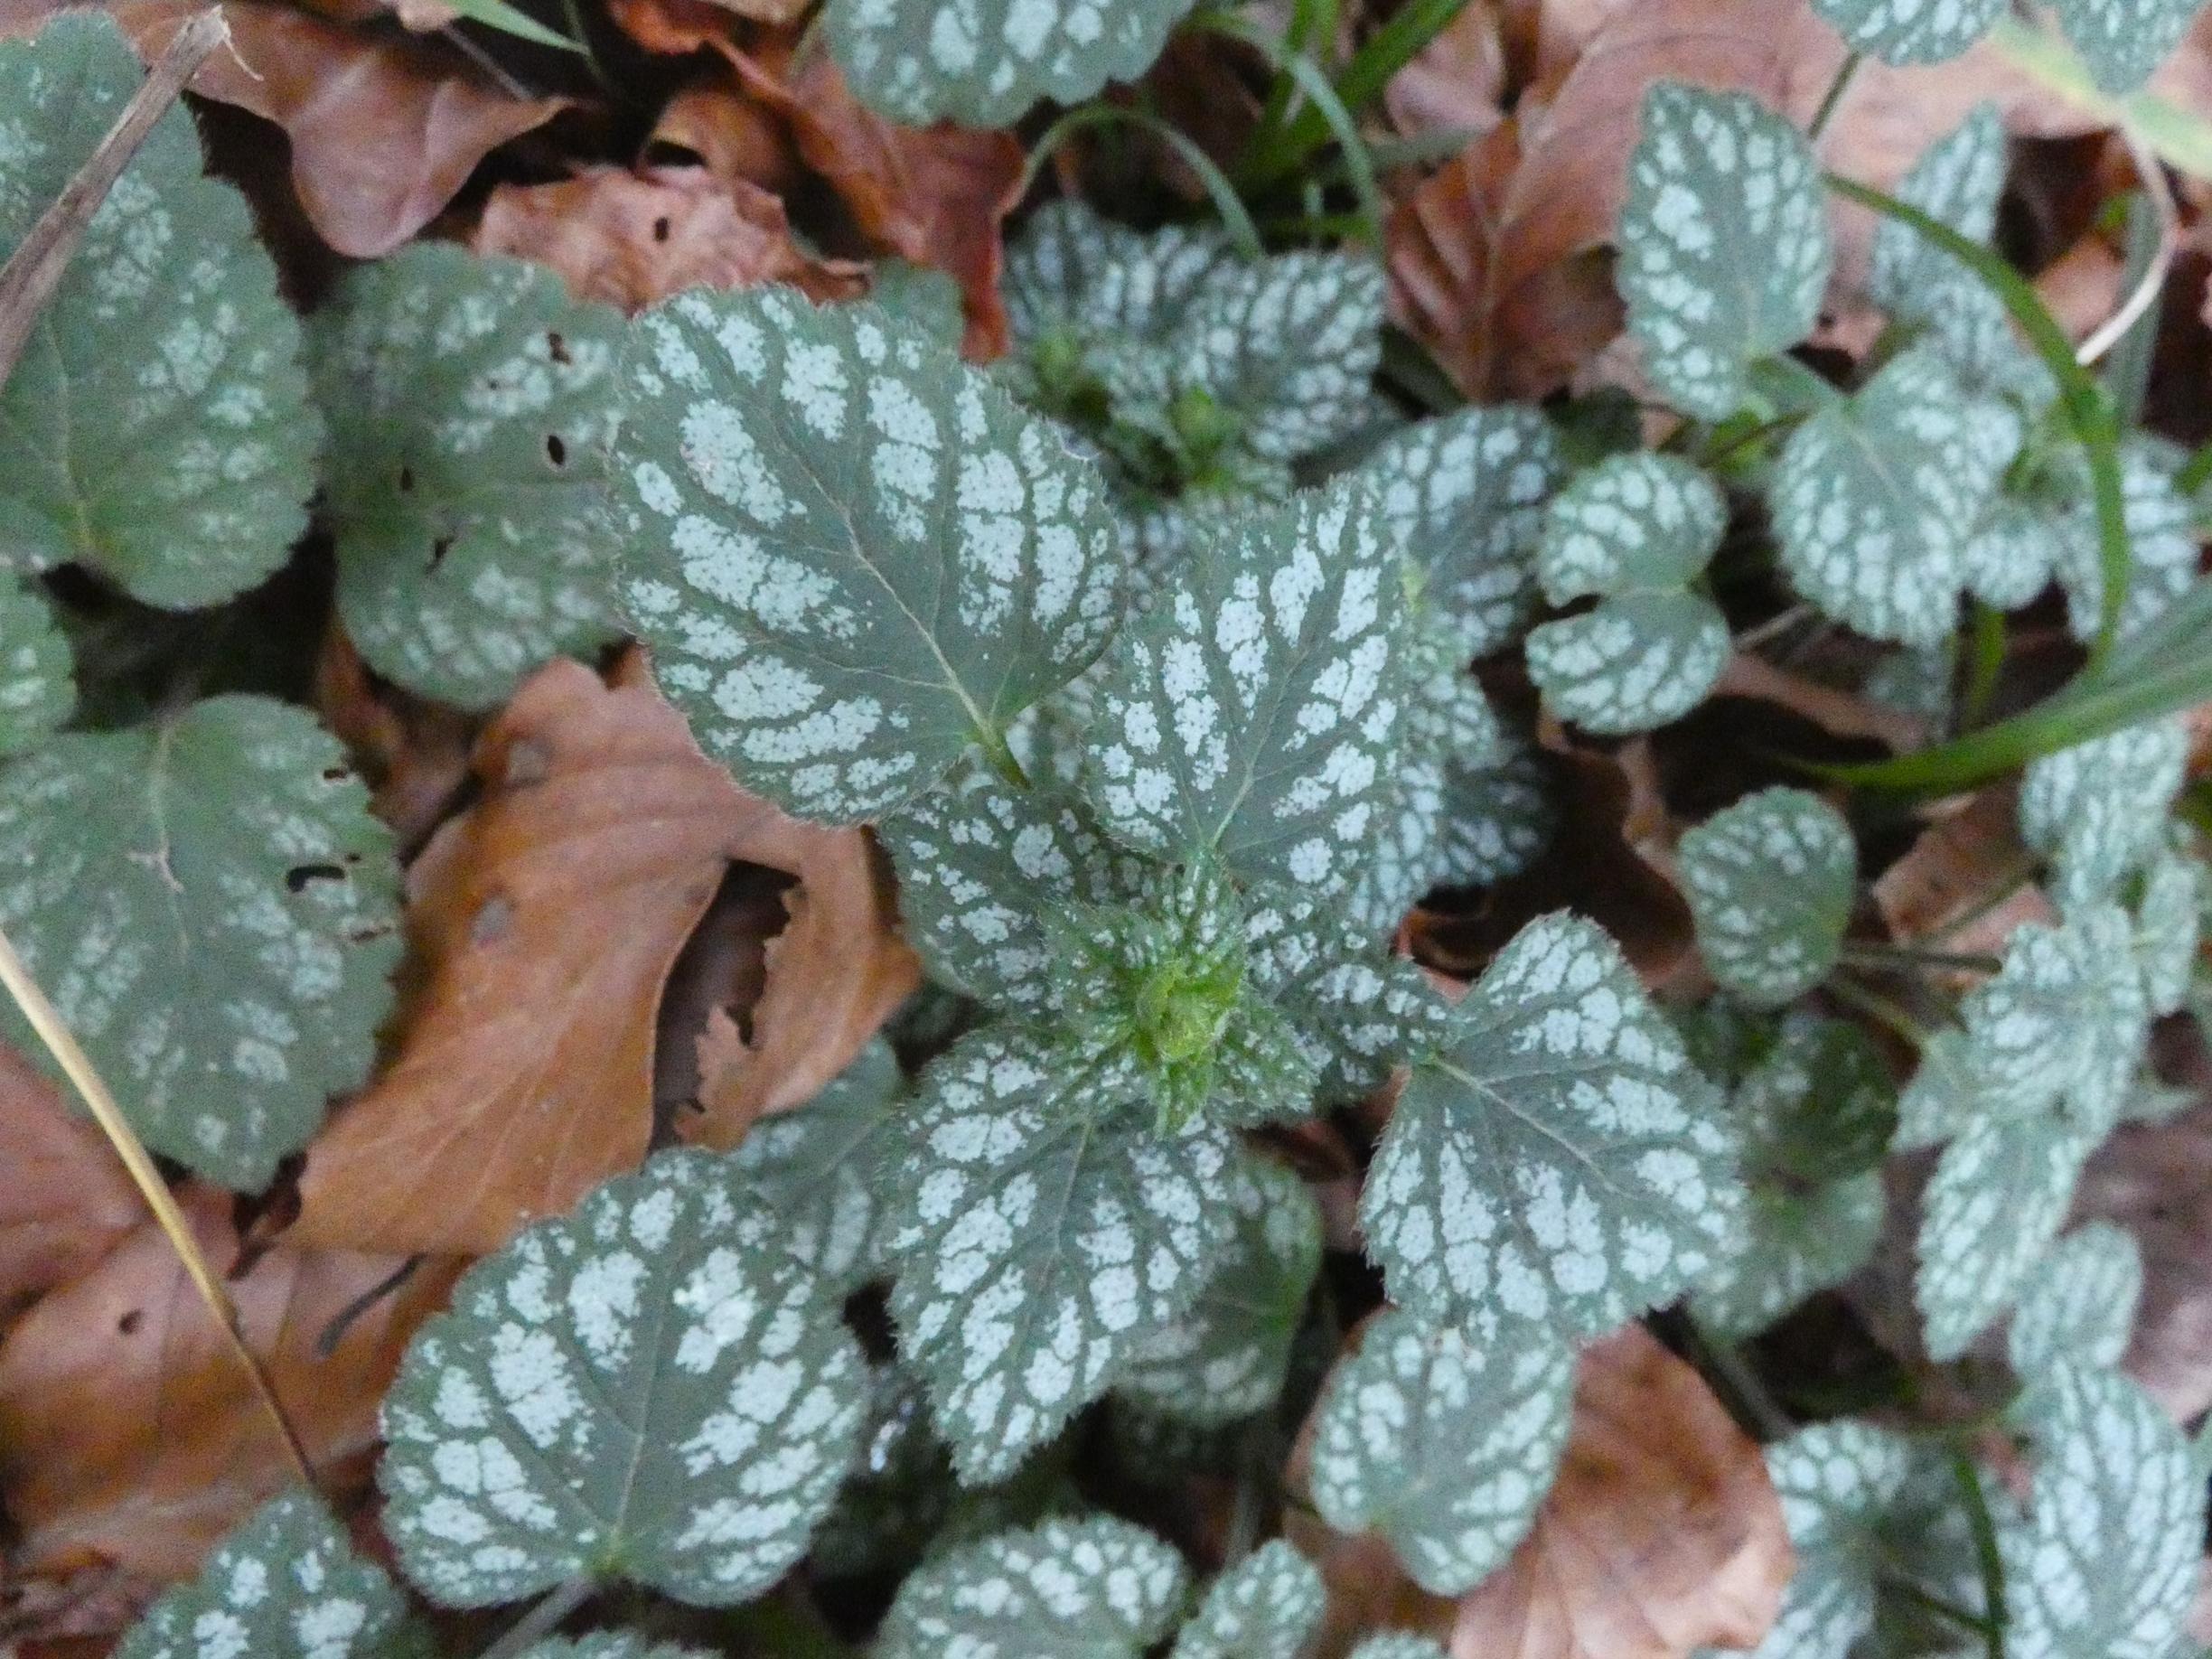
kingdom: Plantae
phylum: Tracheophyta
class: Magnoliopsida
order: Lamiales
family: Lamiaceae
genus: Lamium
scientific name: Lamium galeobdolon
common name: Have-guldnælde
